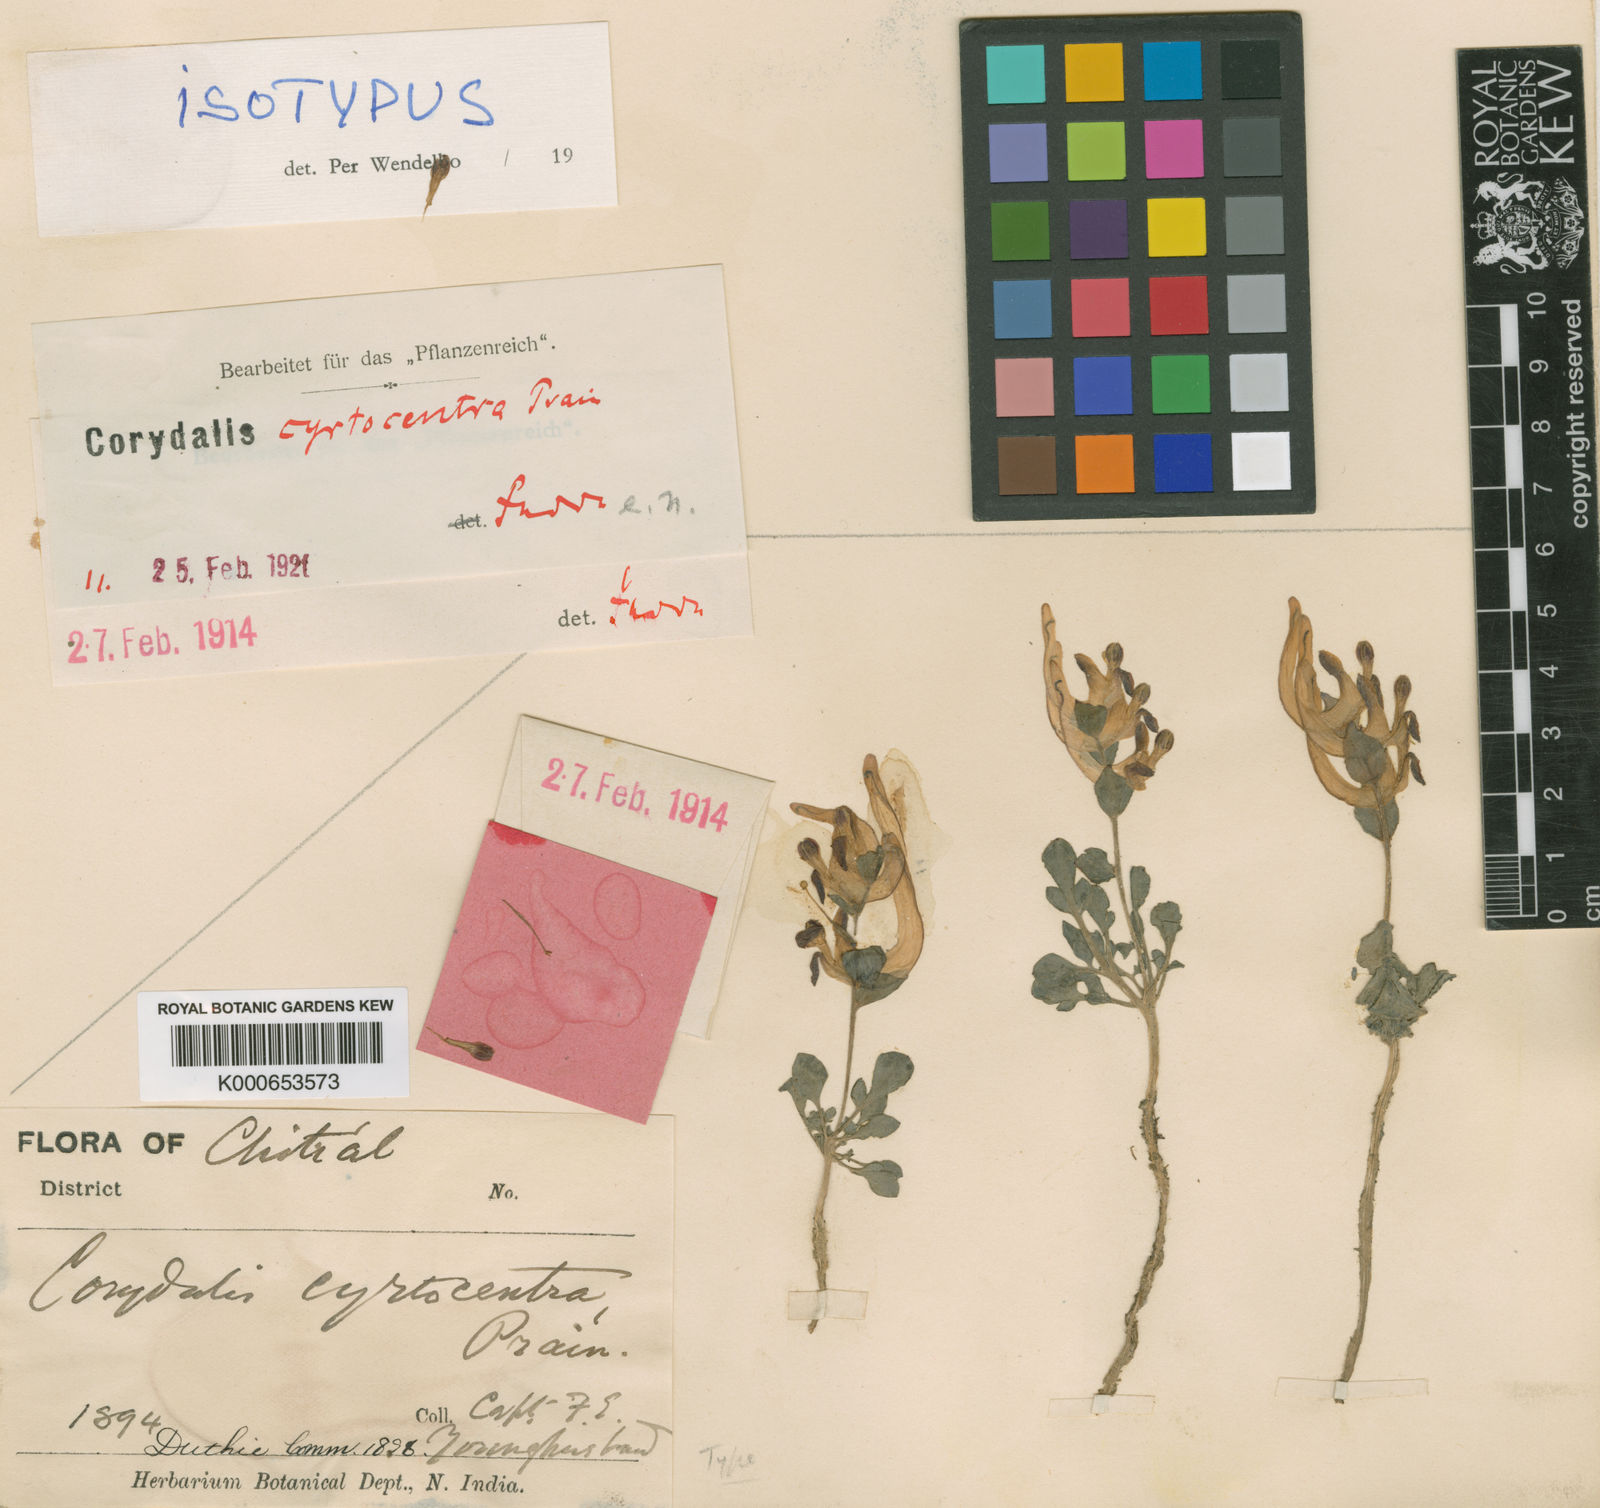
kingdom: Plantae
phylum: Tracheophyta
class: Magnoliopsida
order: Ranunculales
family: Papaveraceae
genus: Corydalis
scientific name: Corydalis ledebouriana
